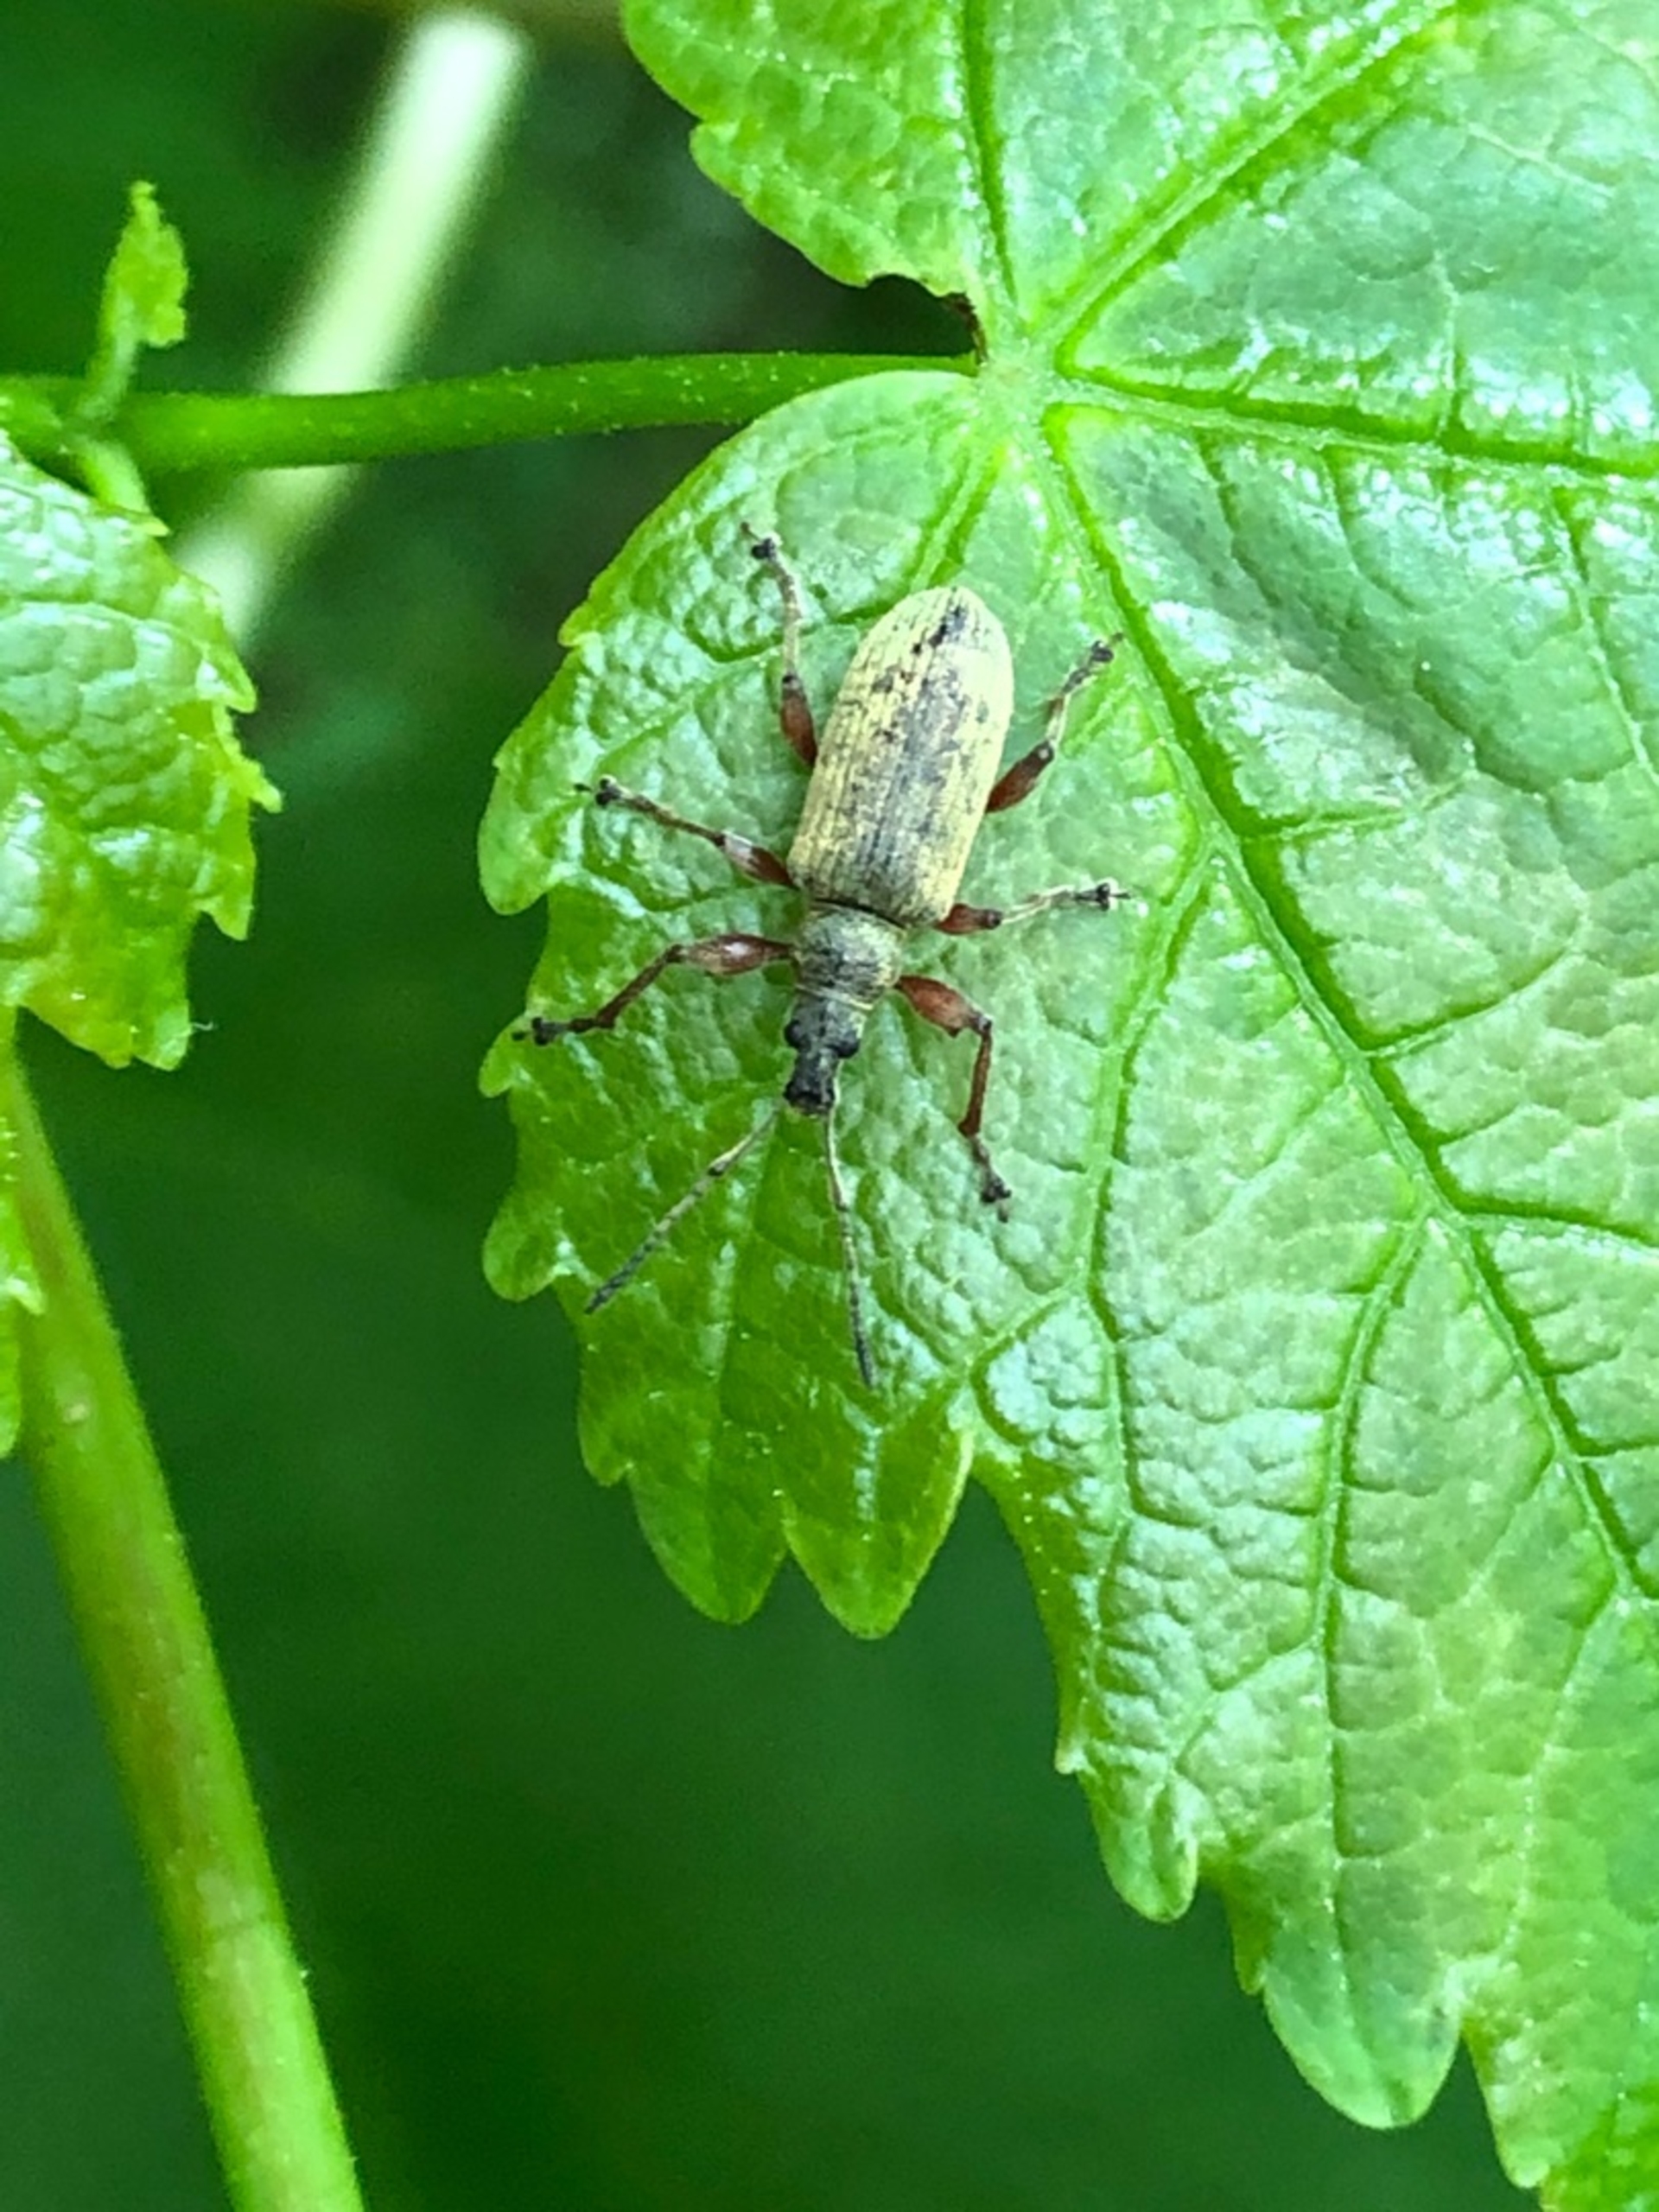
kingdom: Animalia
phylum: Arthropoda
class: Insecta
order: Coleoptera
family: Curculionidae
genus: Phyllobius
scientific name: Phyllobius glaucus
